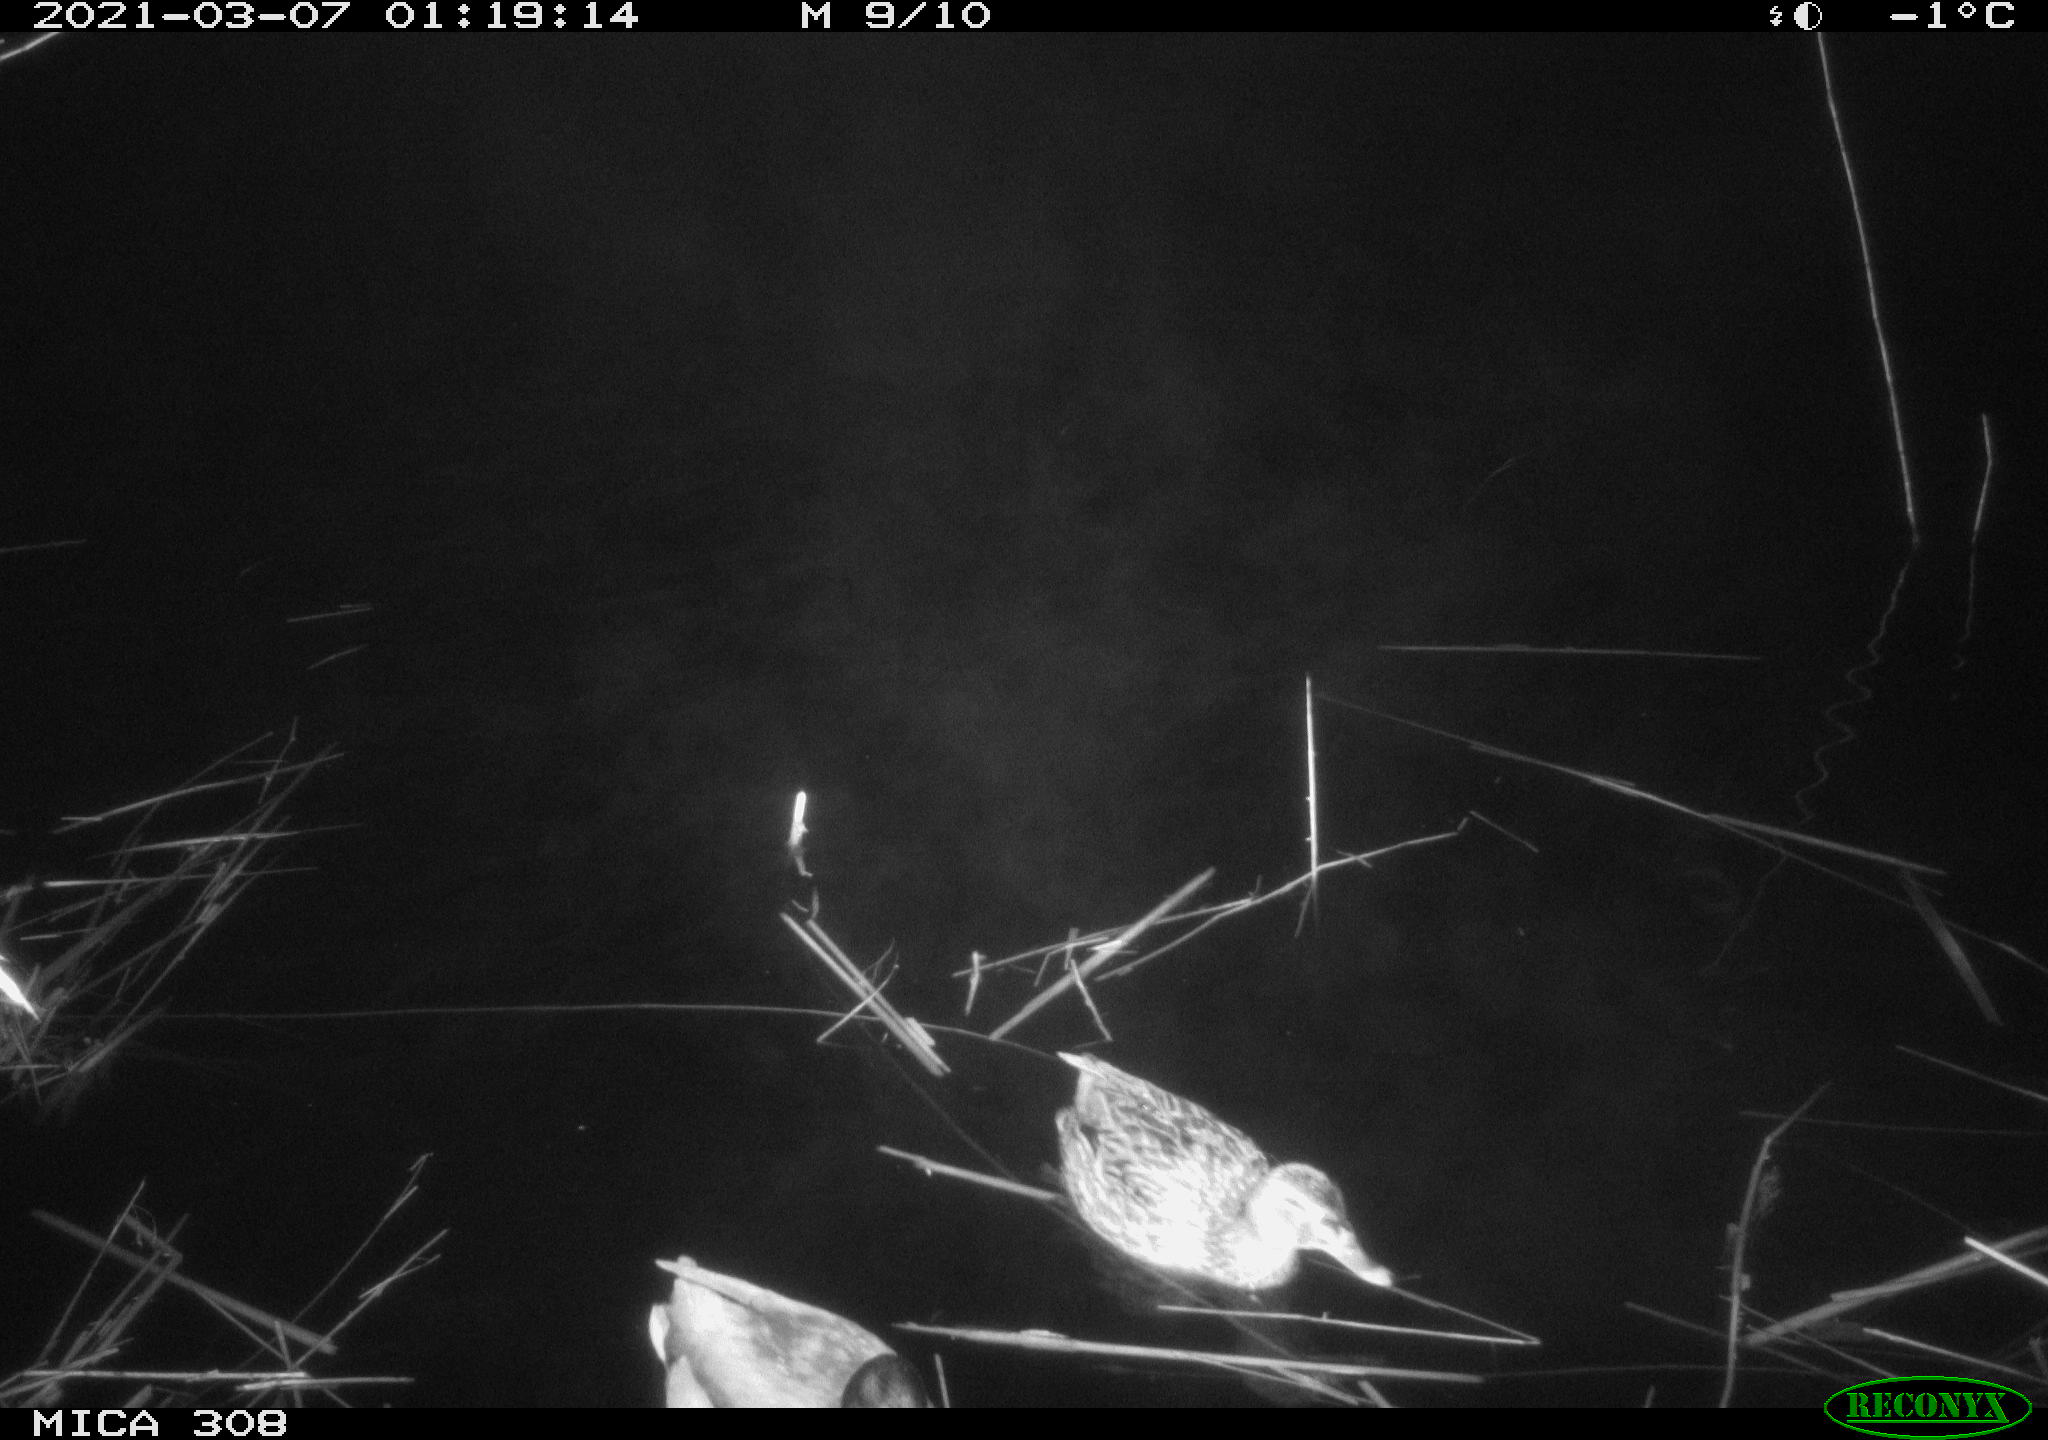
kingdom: Animalia
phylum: Chordata
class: Aves
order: Gruiformes
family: Rallidae
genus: Gallinula
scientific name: Gallinula chloropus
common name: Common moorhen
